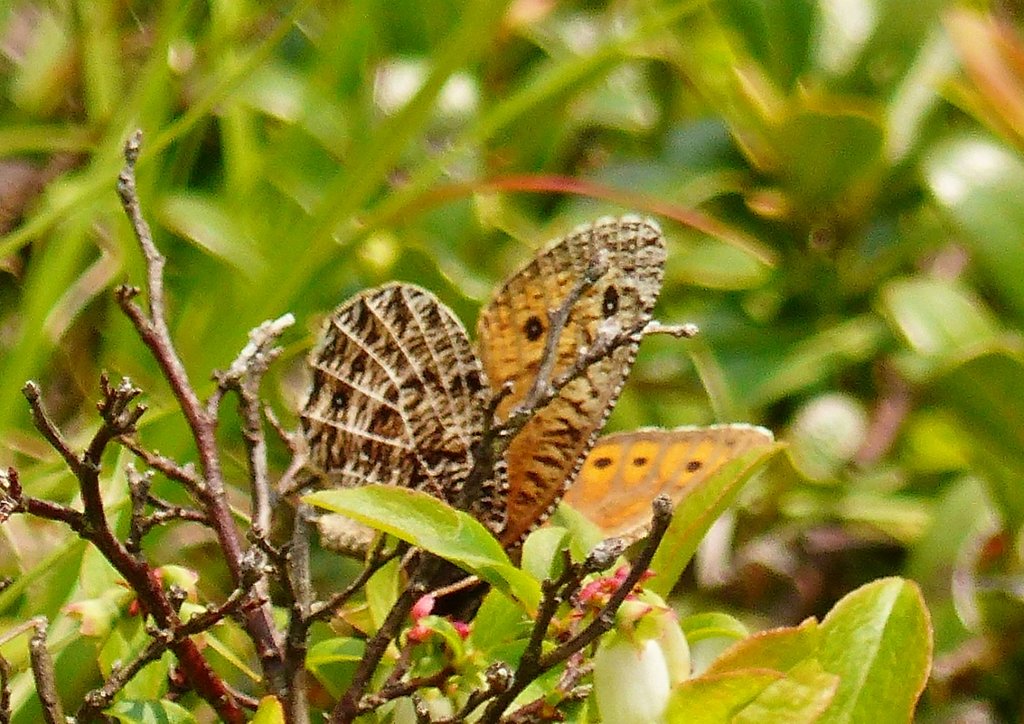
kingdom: Animalia
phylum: Arthropoda
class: Insecta
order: Lepidoptera
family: Nymphalidae
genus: Oeneis
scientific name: Oeneis chryxus
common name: Chryxus Arctic
